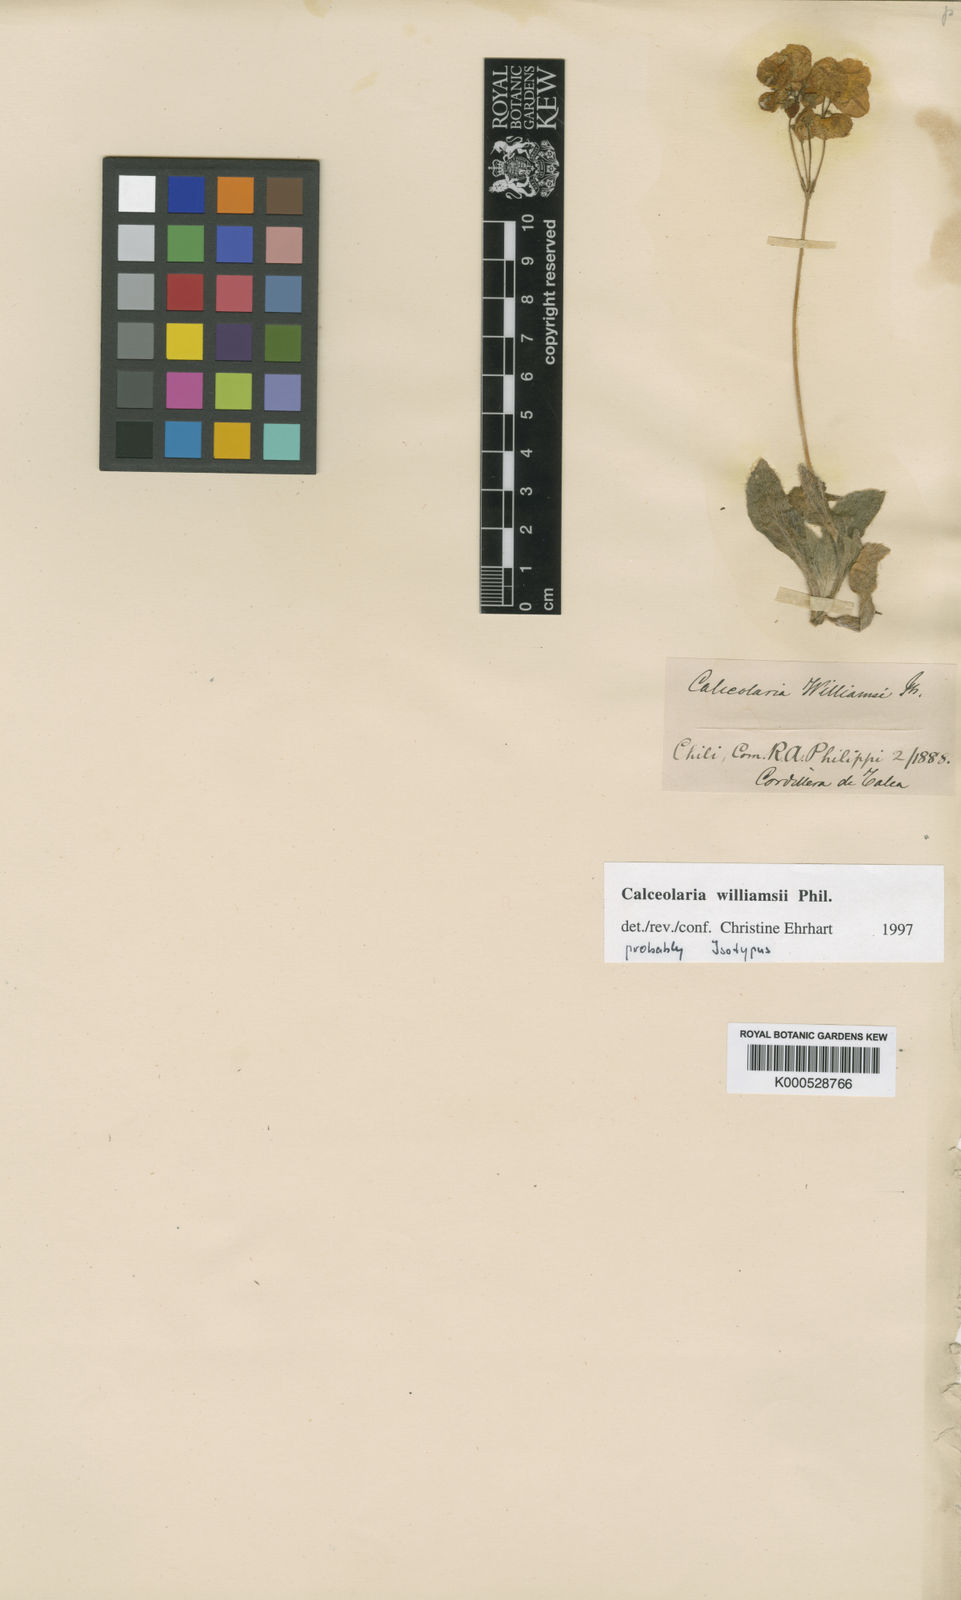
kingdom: Plantae
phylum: Tracheophyta
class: Magnoliopsida
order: Lamiales
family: Calceolariaceae
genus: Calceolaria
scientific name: Calceolaria williamsii
